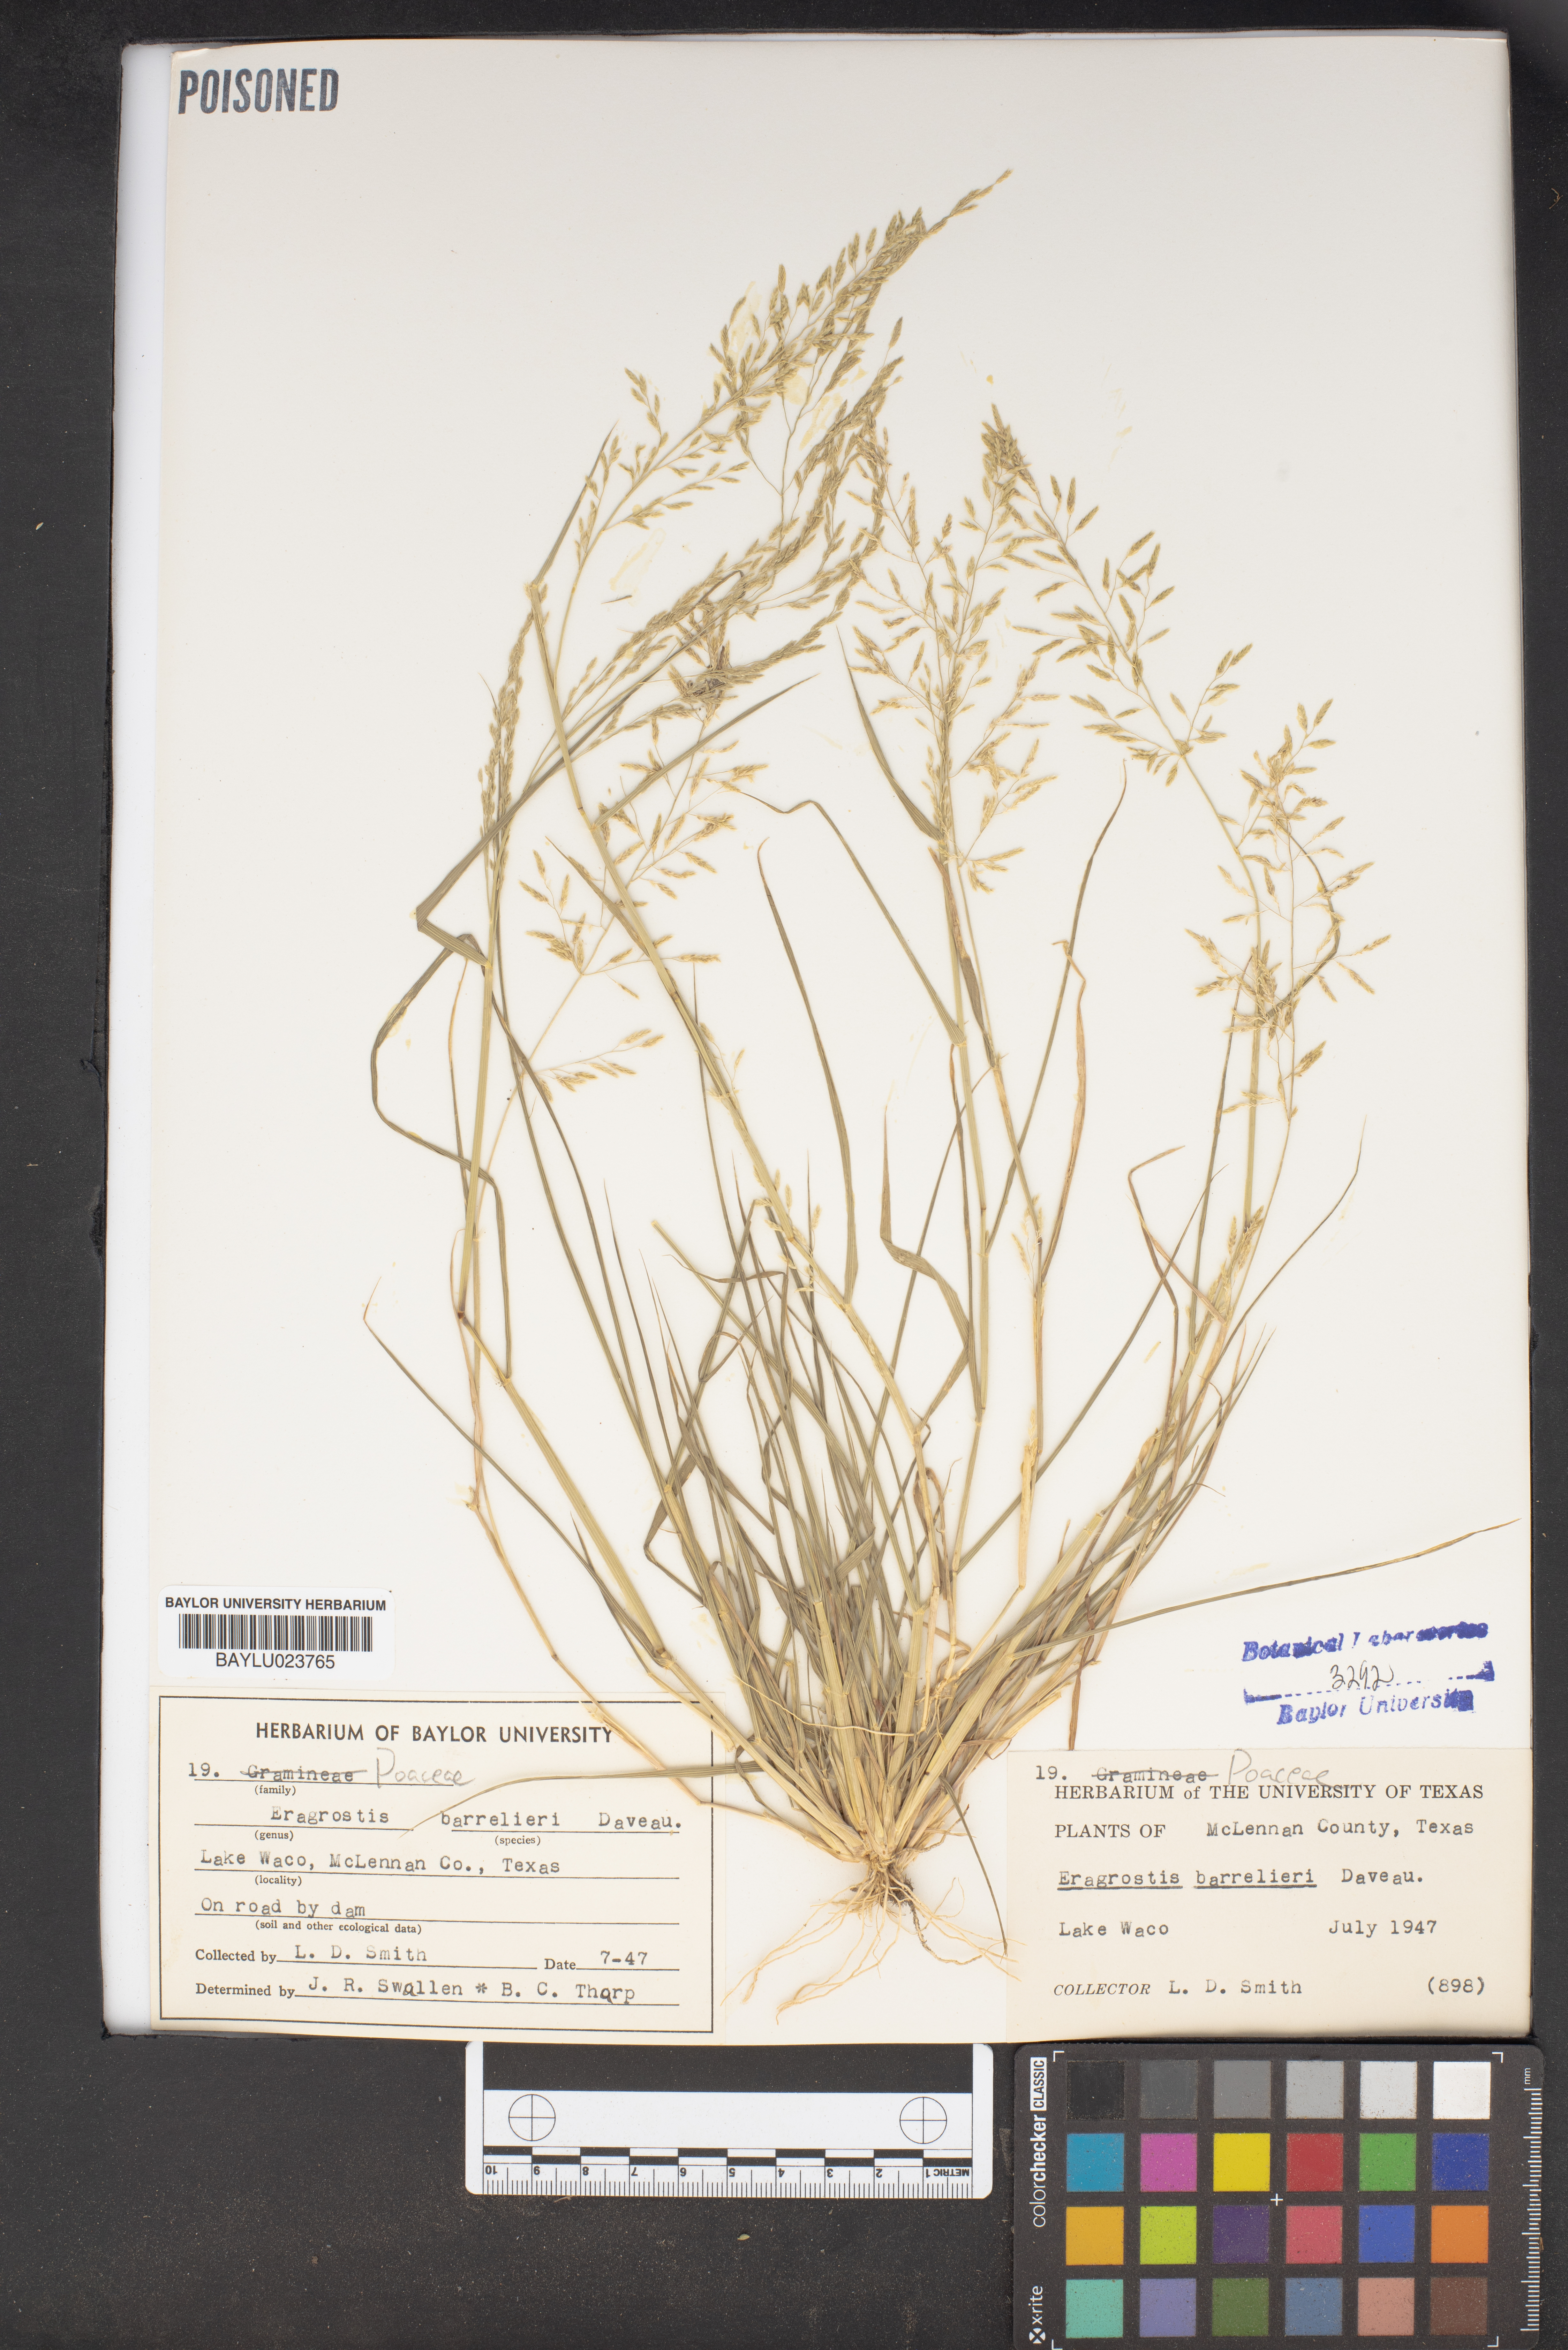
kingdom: Plantae
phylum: Tracheophyta
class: Liliopsida
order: Poales
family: Poaceae
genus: Eragrostis
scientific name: Eragrostis barrelieri
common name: Mediterranean lovegrass
